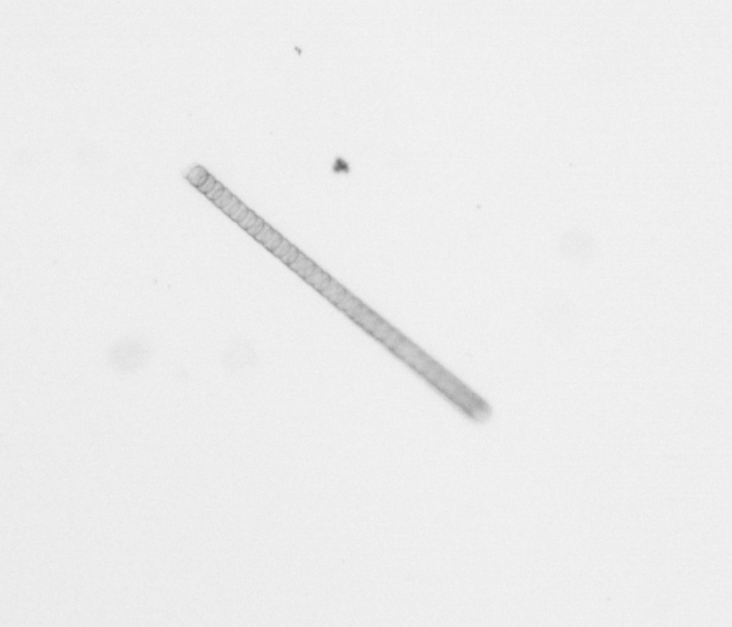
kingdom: Chromista
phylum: Ochrophyta
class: Bacillariophyceae
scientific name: Bacillariophyceae
